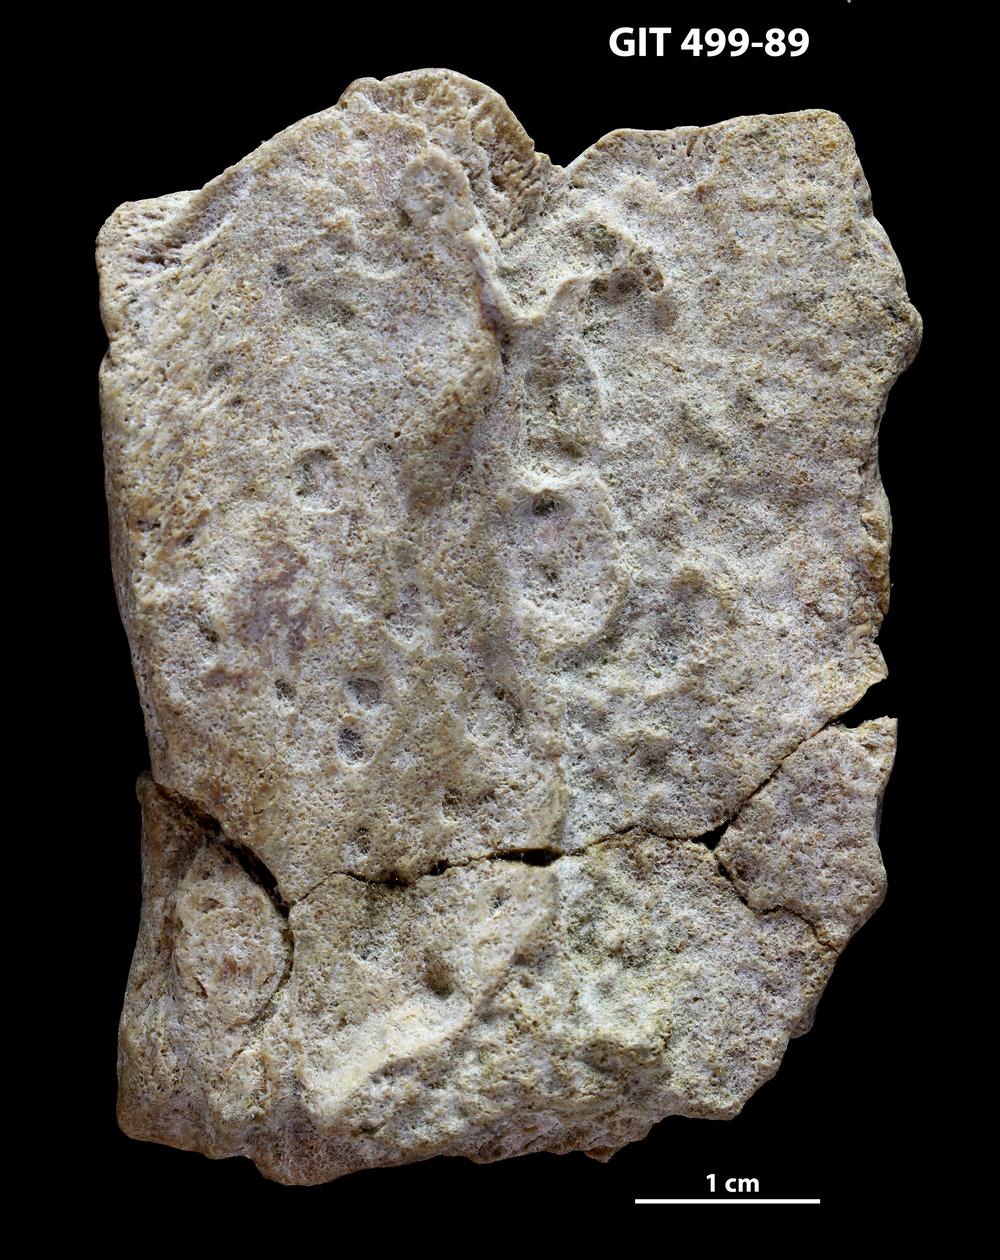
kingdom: Animalia
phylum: Chordata
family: Holoptychiidae
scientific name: Holoptychiidae
